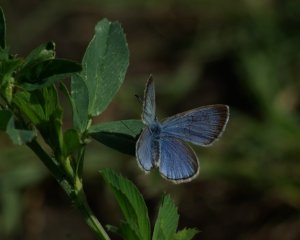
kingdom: Animalia
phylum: Arthropoda
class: Insecta
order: Lepidoptera
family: Lycaenidae
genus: Glaucopsyche
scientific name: Glaucopsyche lygdamus
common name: Silvery Blue
